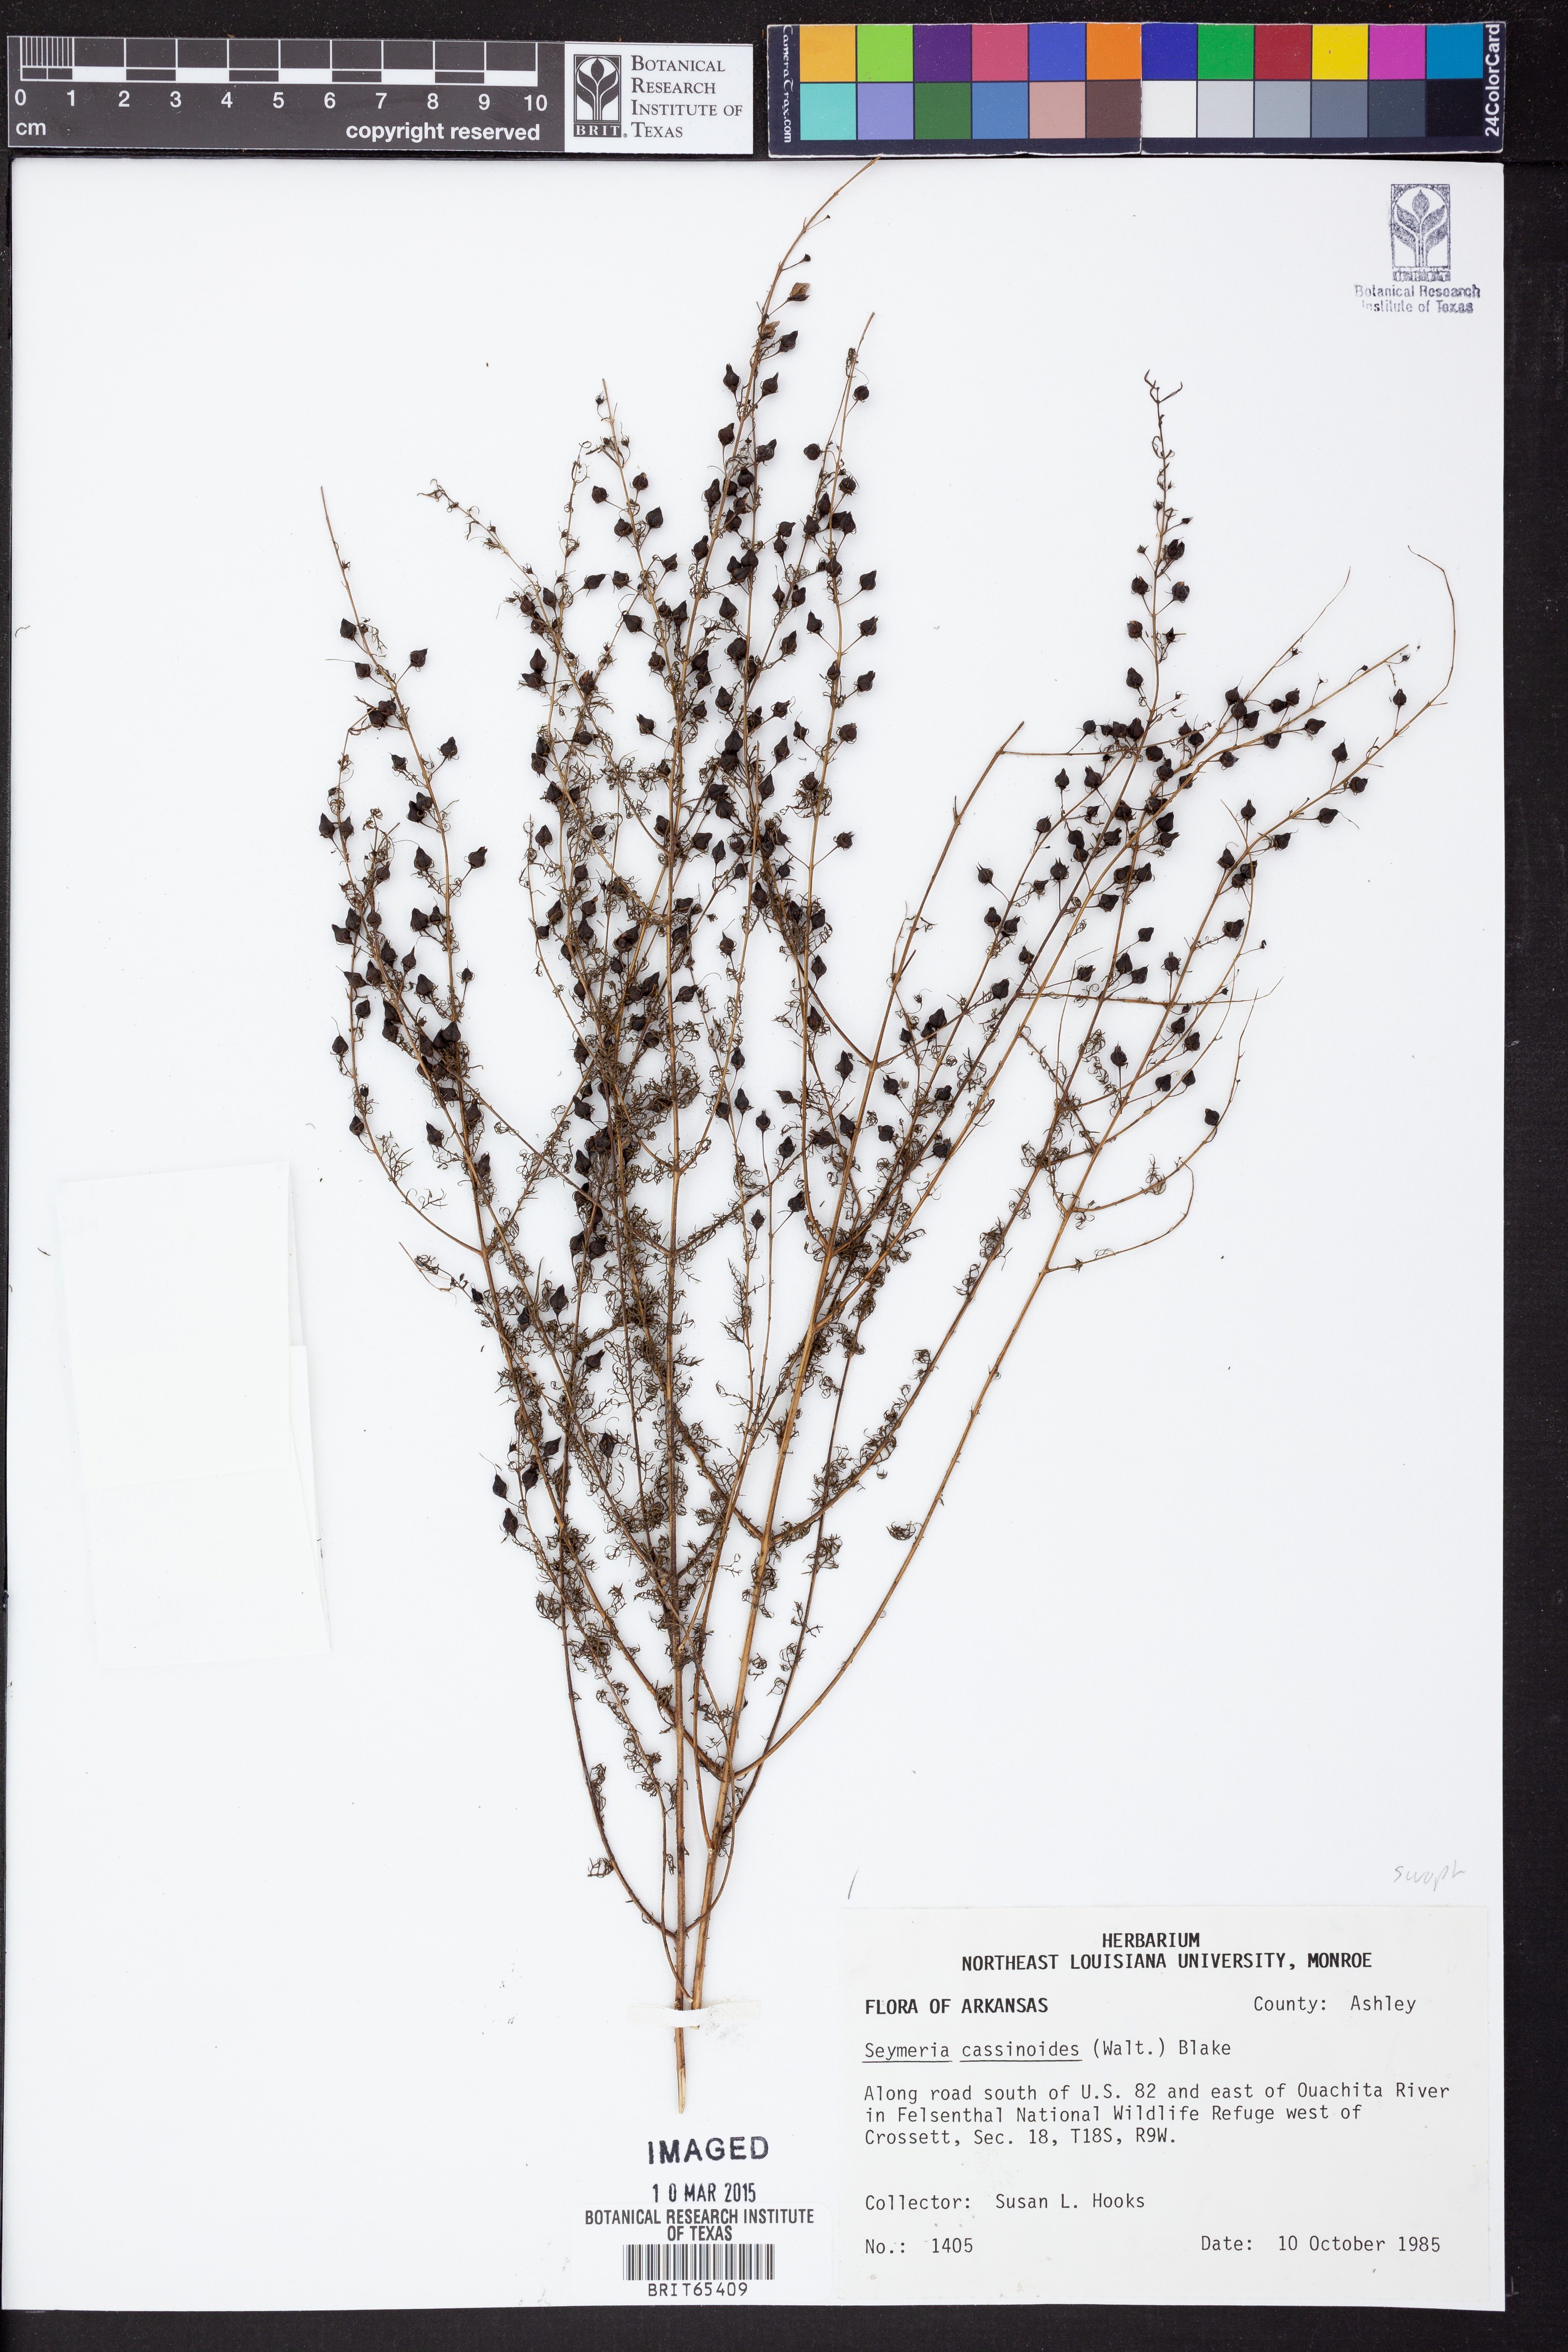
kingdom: Plantae
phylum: Tracheophyta
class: Magnoliopsida
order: Lamiales
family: Orobanchaceae
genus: Seymeria
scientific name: Seymeria cassioides
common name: Yaupon black-senna
